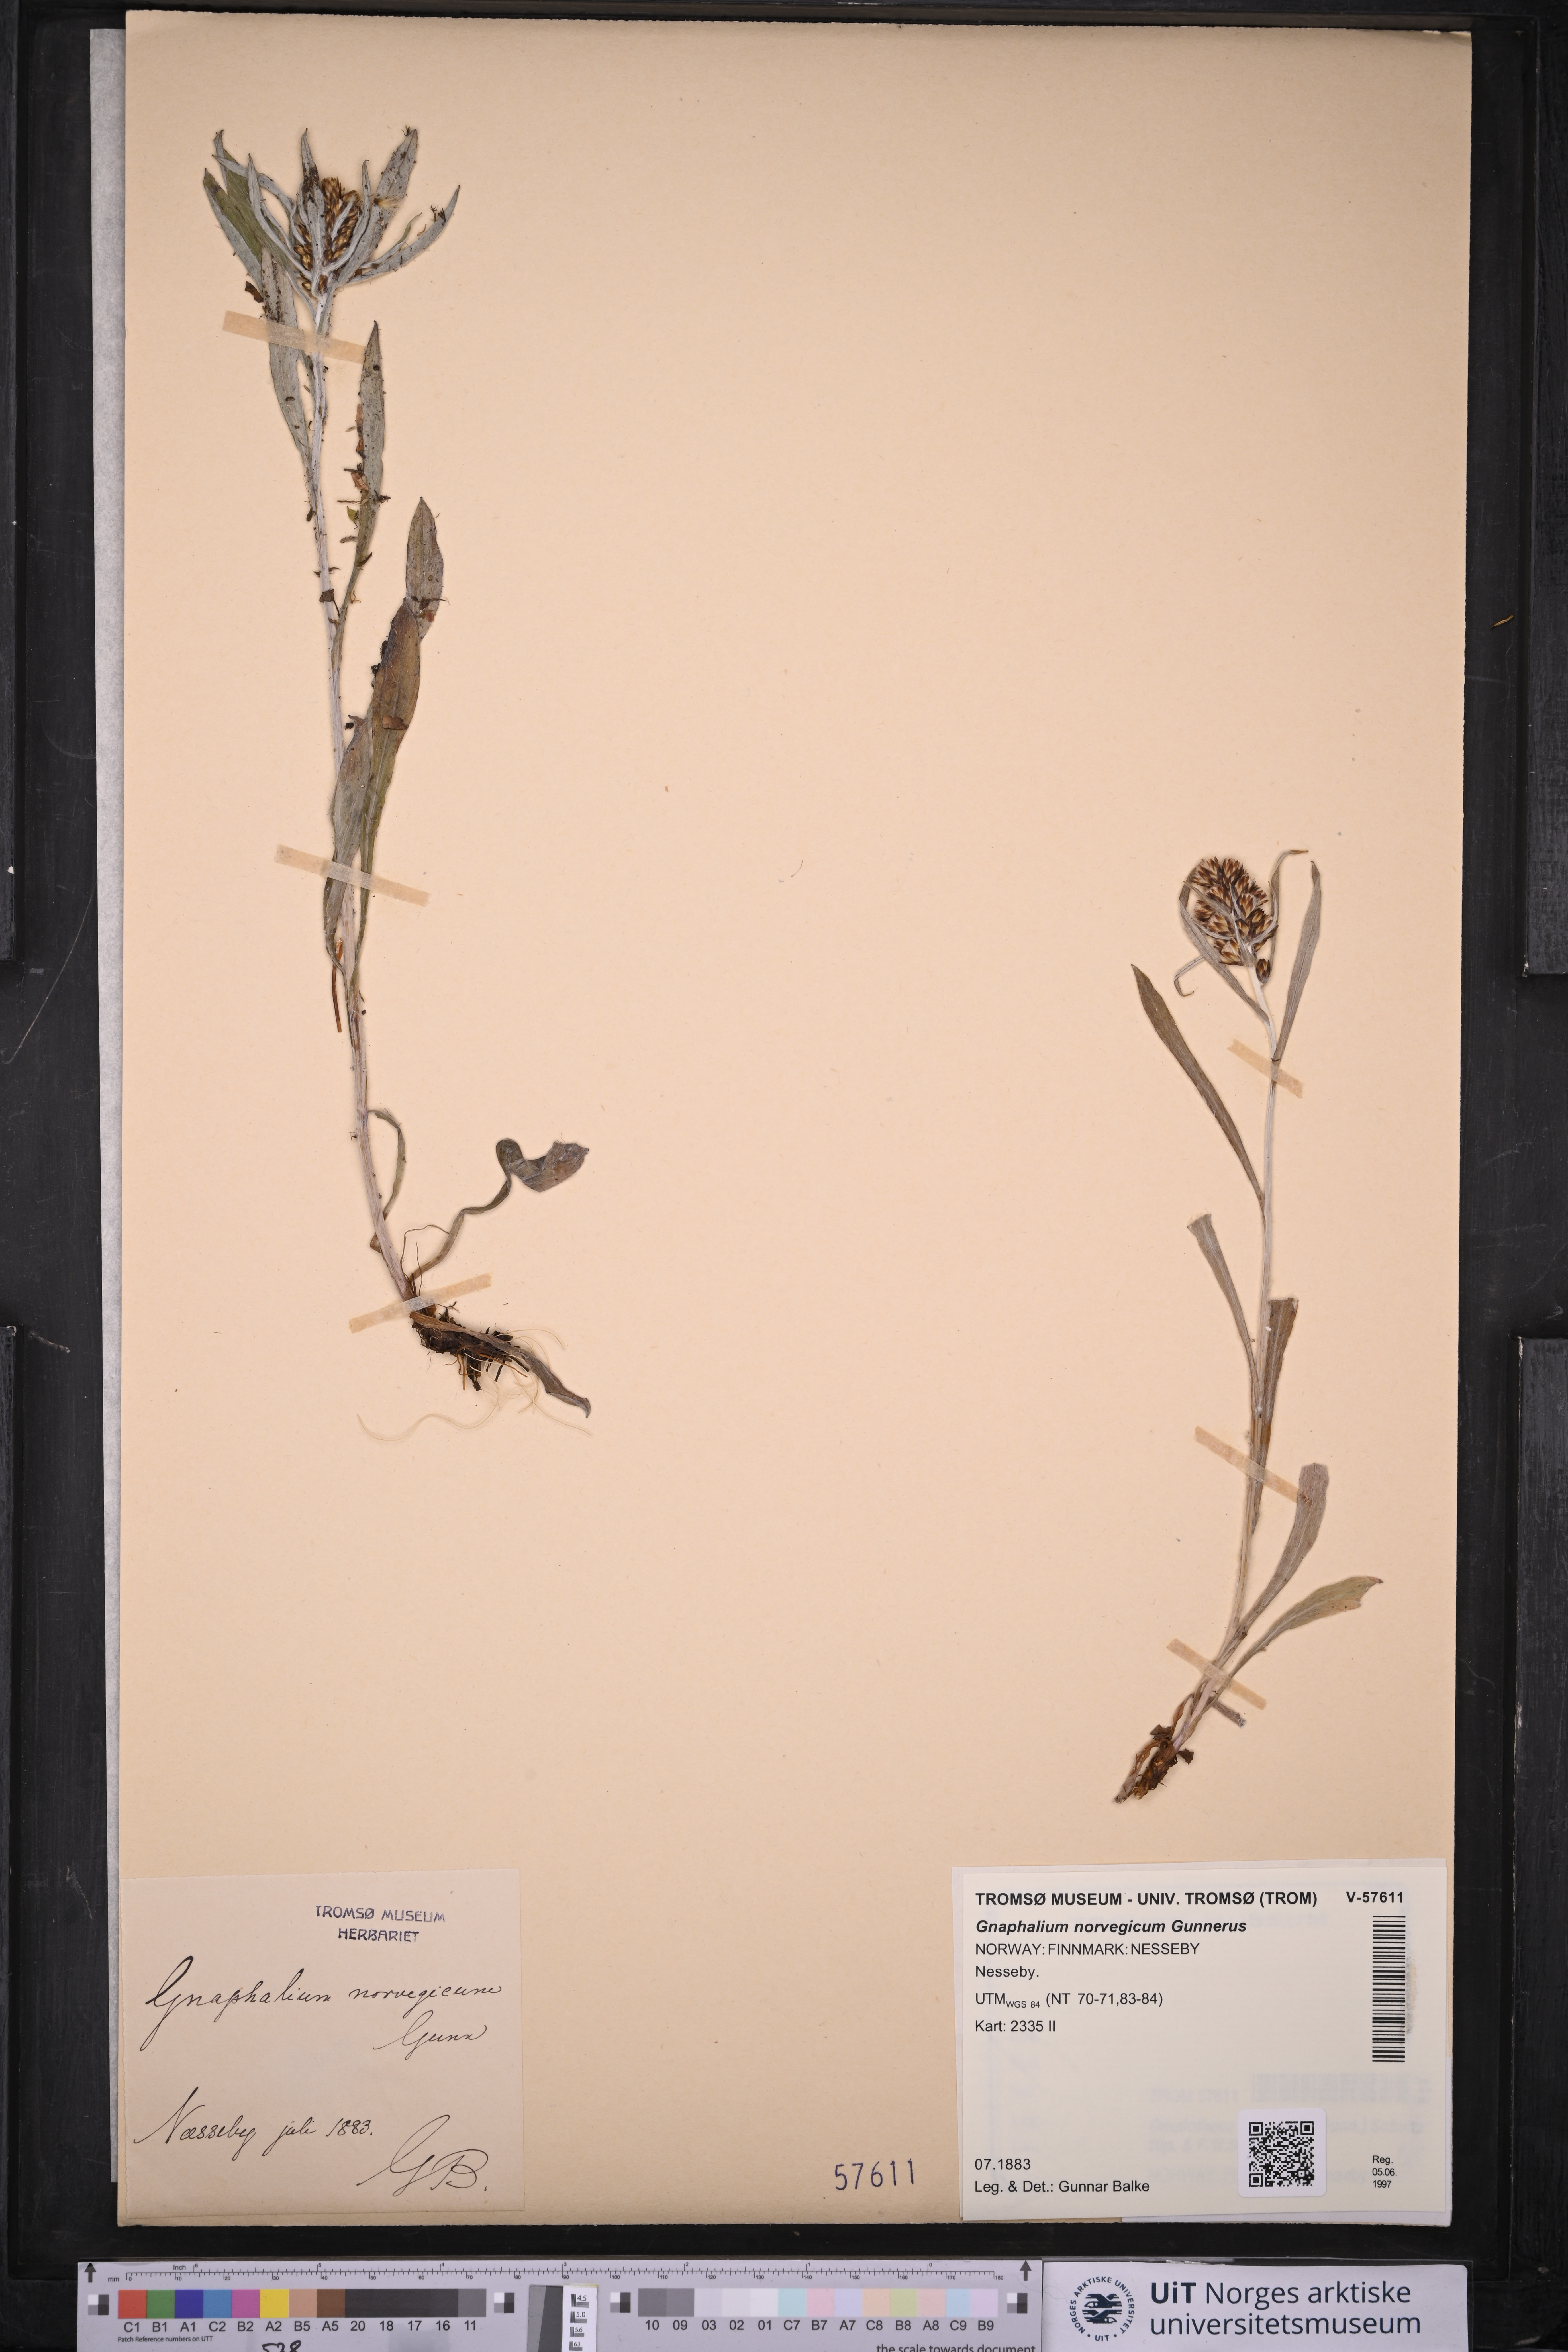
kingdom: Plantae
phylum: Tracheophyta
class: Magnoliopsida
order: Asterales
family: Asteraceae
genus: Omalotheca
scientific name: Omalotheca norvegica
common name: Norwegian arctic-cudweed
